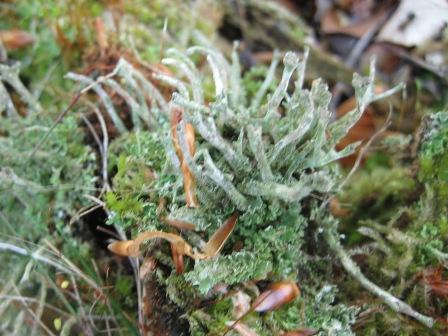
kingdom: Fungi
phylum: Ascomycota
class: Lecanoromycetes
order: Lecanorales
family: Cladoniaceae
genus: Cladonia
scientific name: Cladonia coniocraea
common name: træfods-bægerlav
